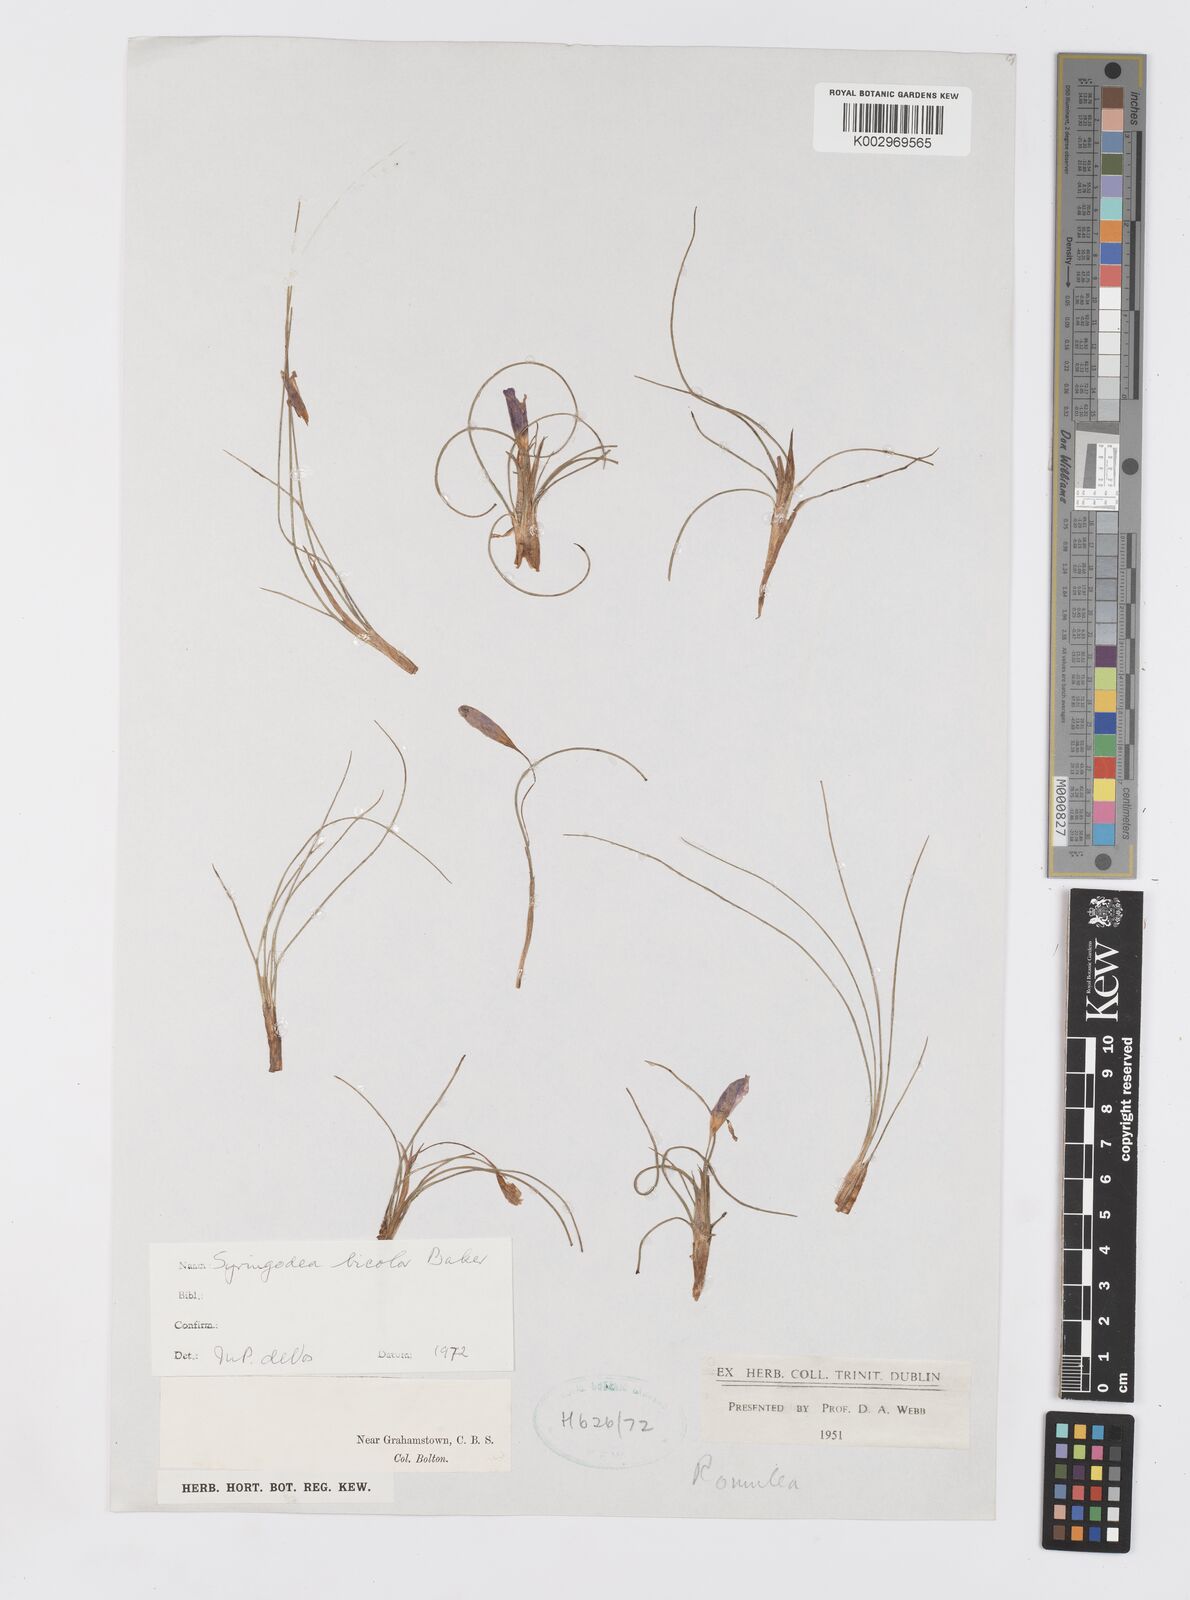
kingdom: Plantae
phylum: Tracheophyta
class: Liliopsida
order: Asparagales
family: Iridaceae
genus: Syringodea
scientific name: Syringodea bifucata
